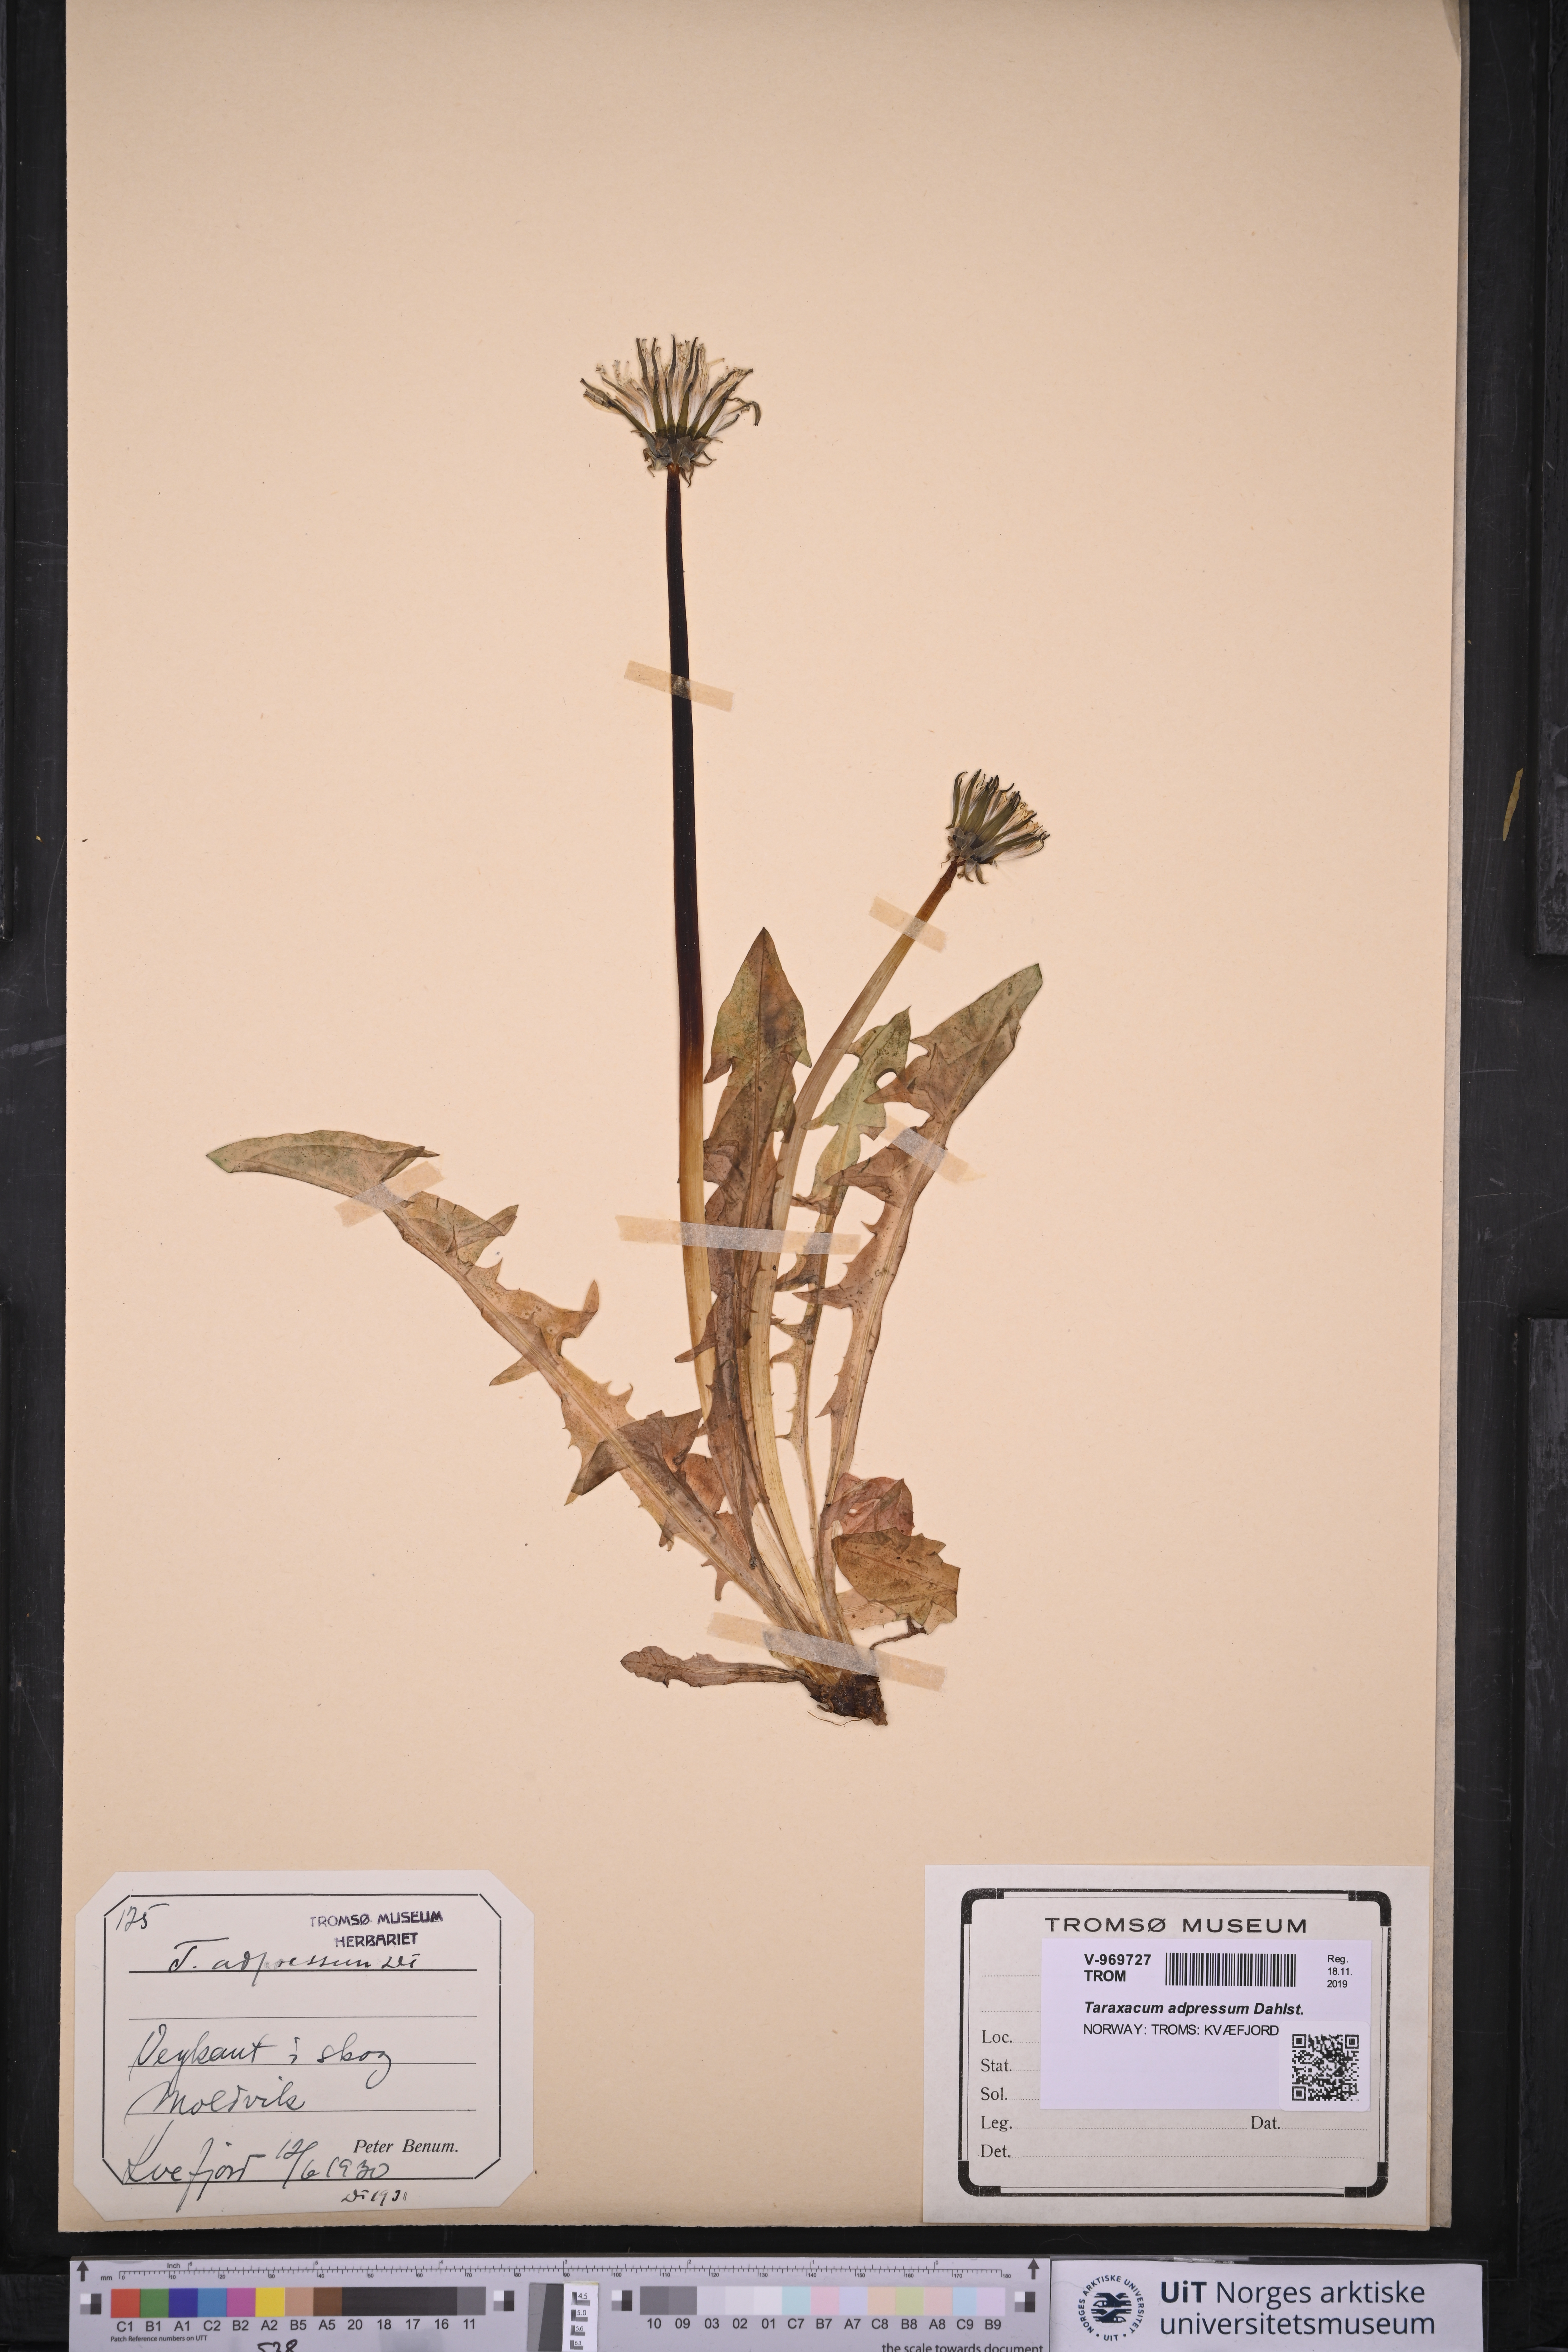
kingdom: Plantae
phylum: Tracheophyta
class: Magnoliopsida
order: Asterales
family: Asteraceae
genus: Taraxacum
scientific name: Taraxacum adpressum
